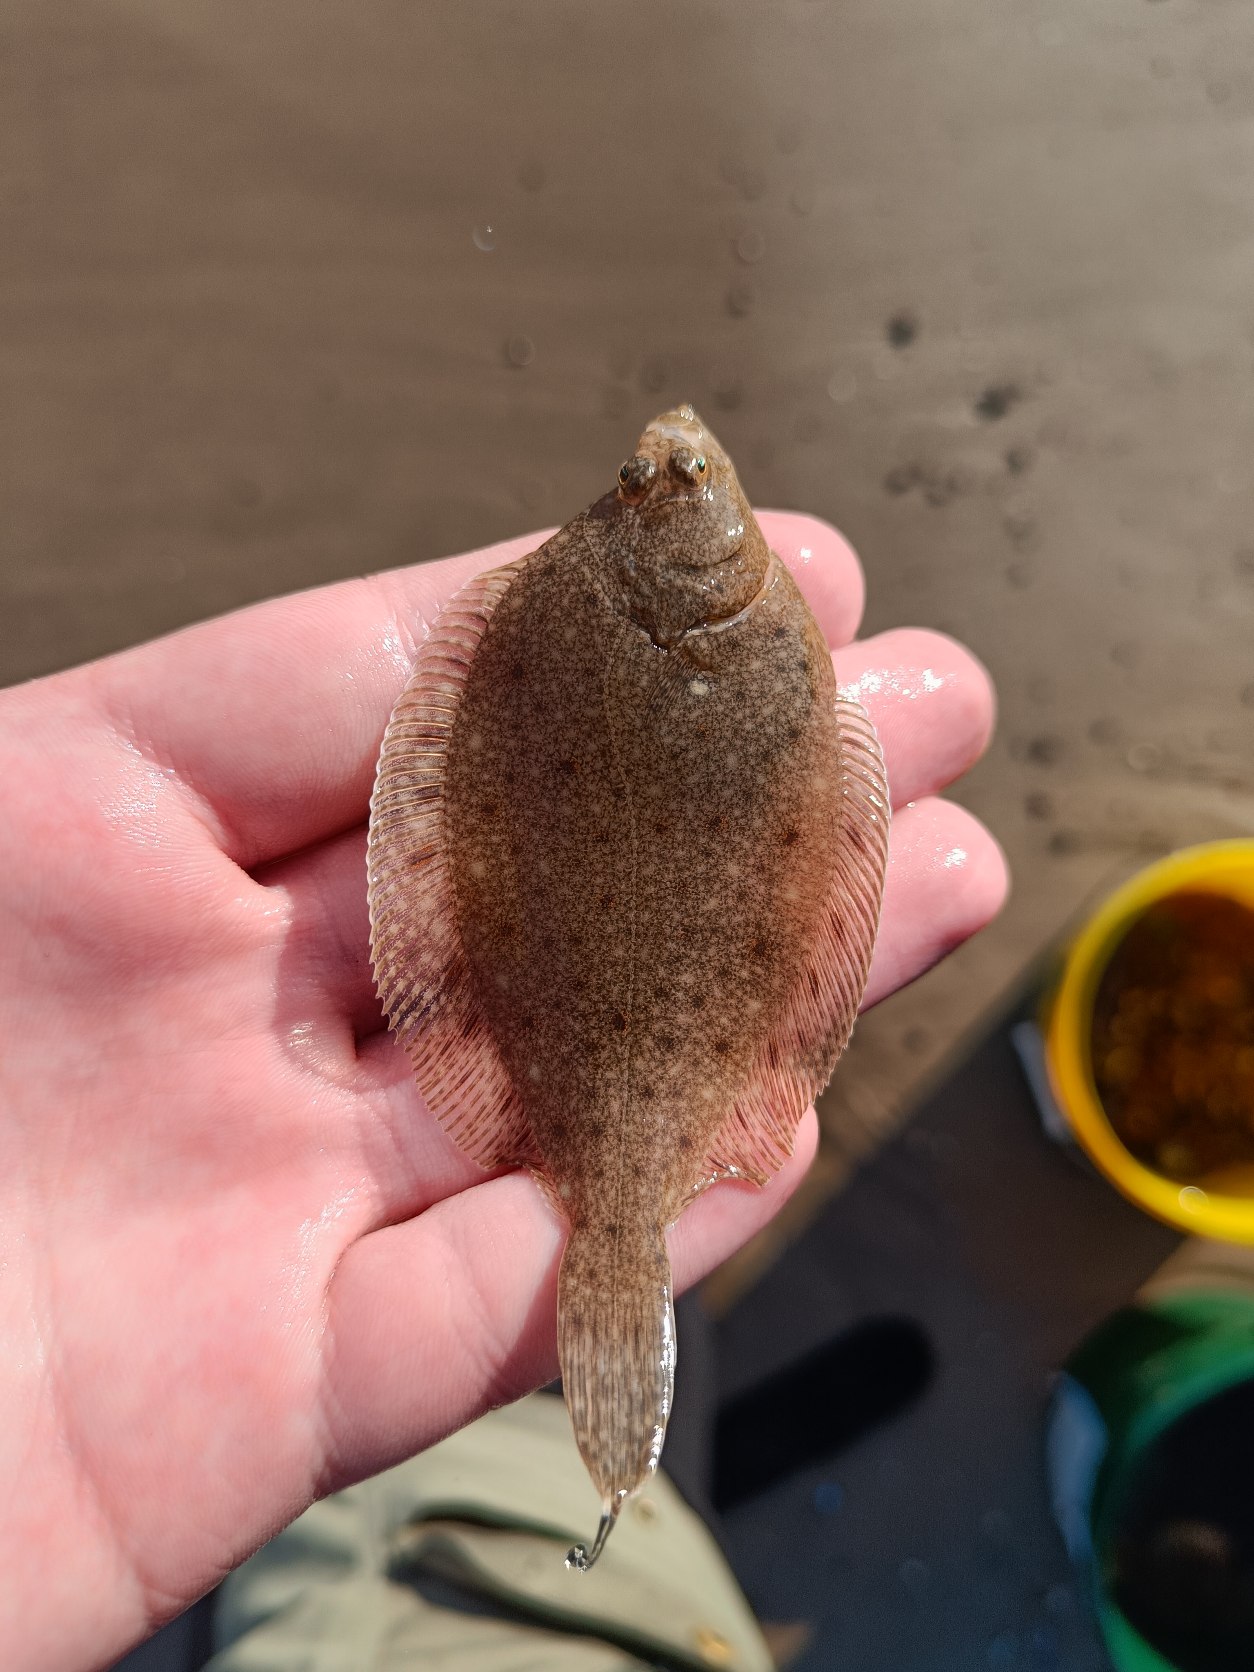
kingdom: Animalia
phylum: Chordata
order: Pleuronectiformes
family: Pleuronectidae
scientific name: Pleuronectidae
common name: Rødspættefamilien
